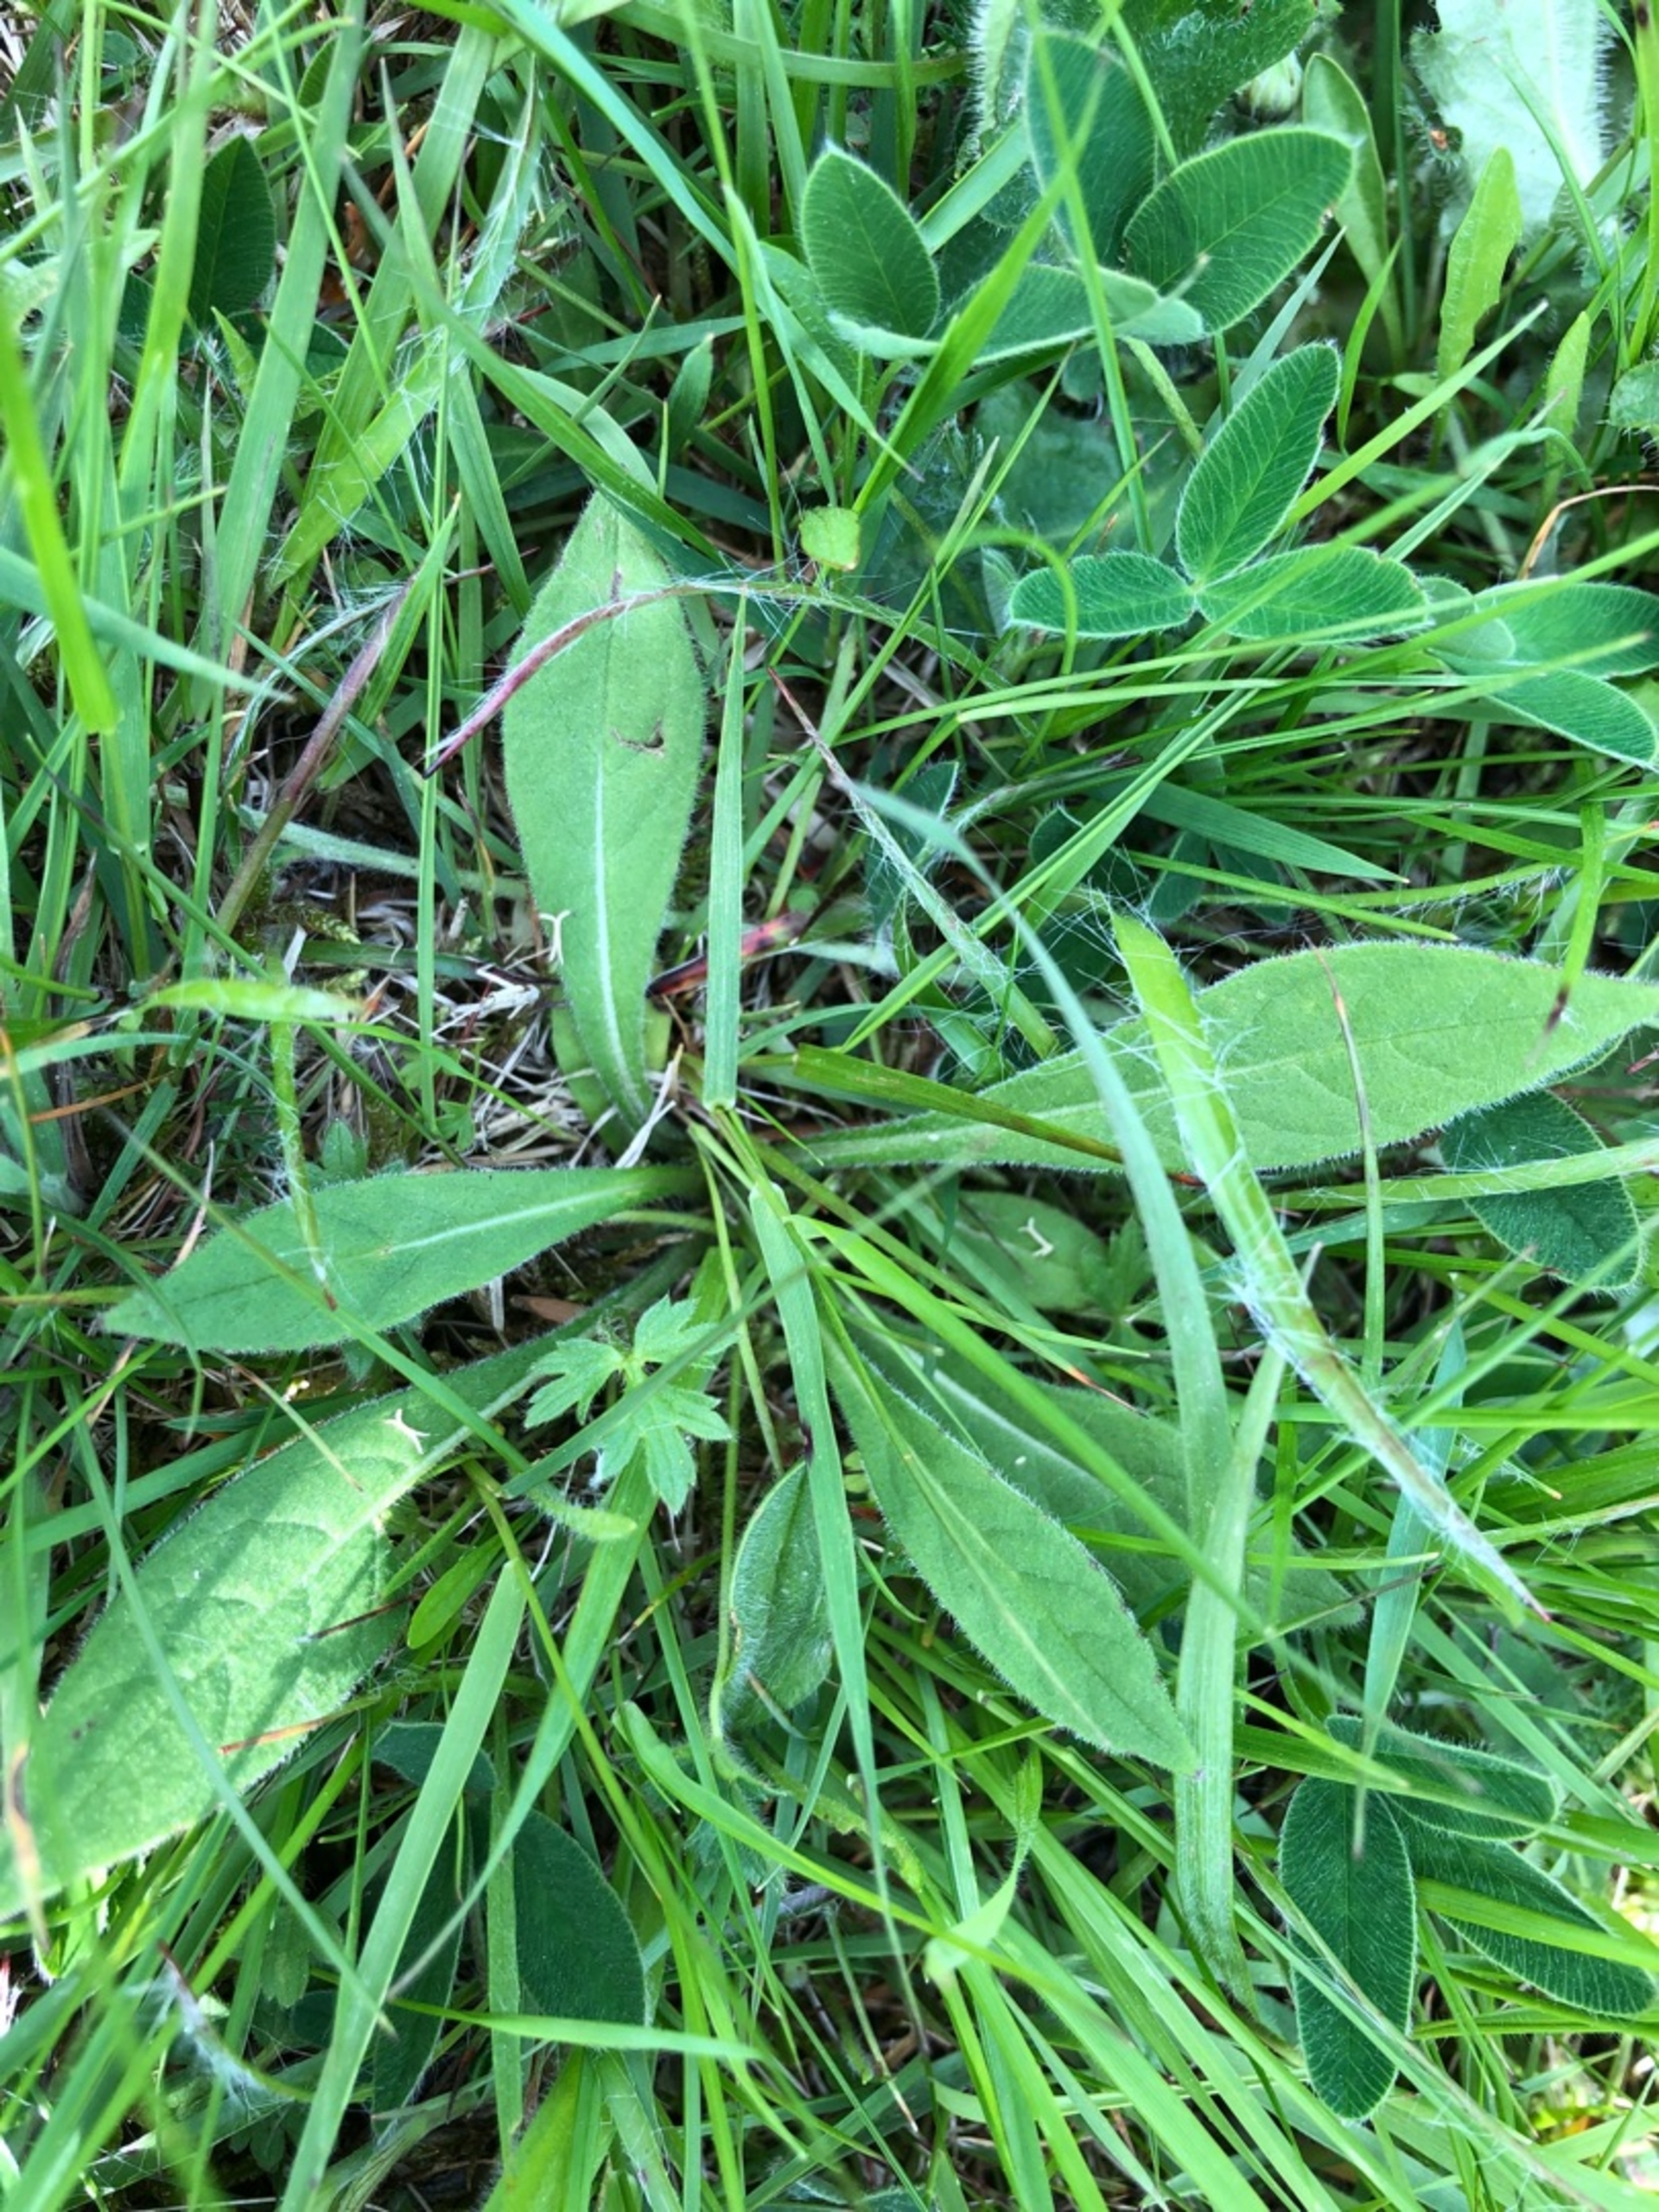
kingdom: Plantae
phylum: Tracheophyta
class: Magnoliopsida
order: Dipsacales
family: Caprifoliaceae
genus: Succisa
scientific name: Succisa pratensis
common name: Djævelsbid
